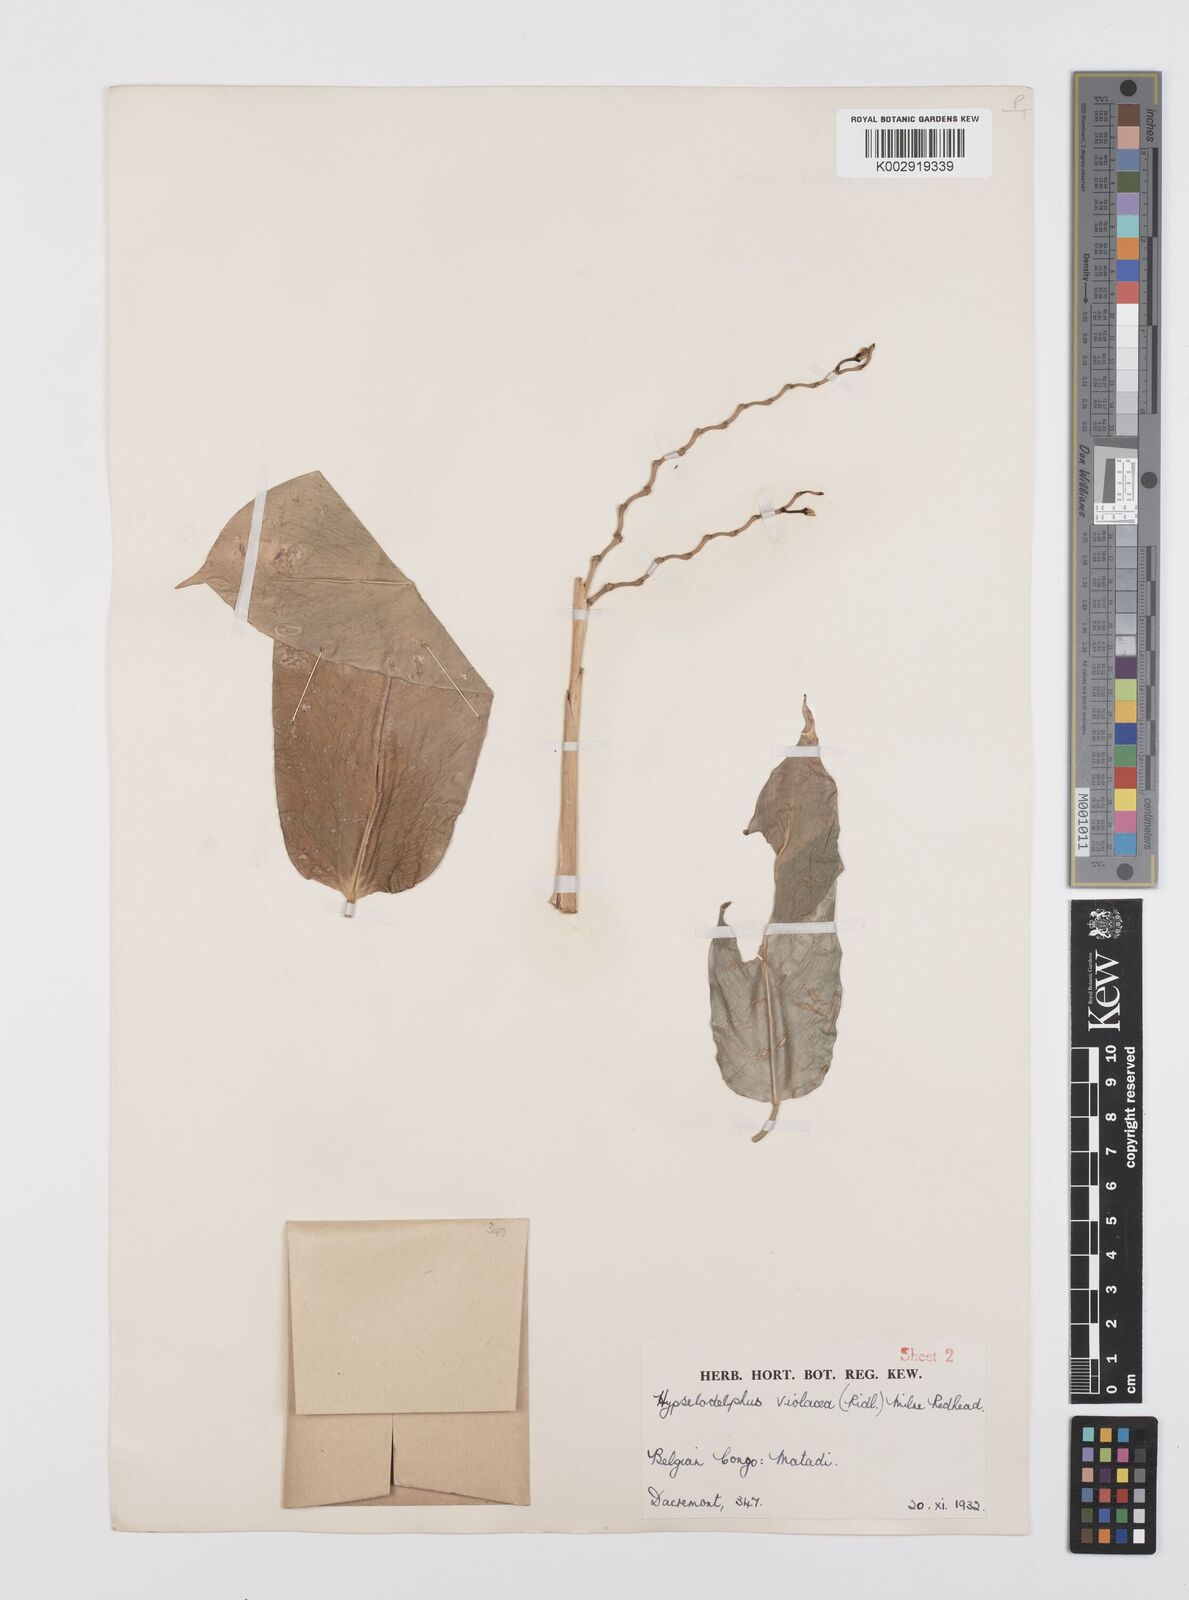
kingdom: Plantae
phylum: Tracheophyta
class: Liliopsida
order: Zingiberales
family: Marantaceae
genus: Hypselodelphys
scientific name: Hypselodelphys violacea
